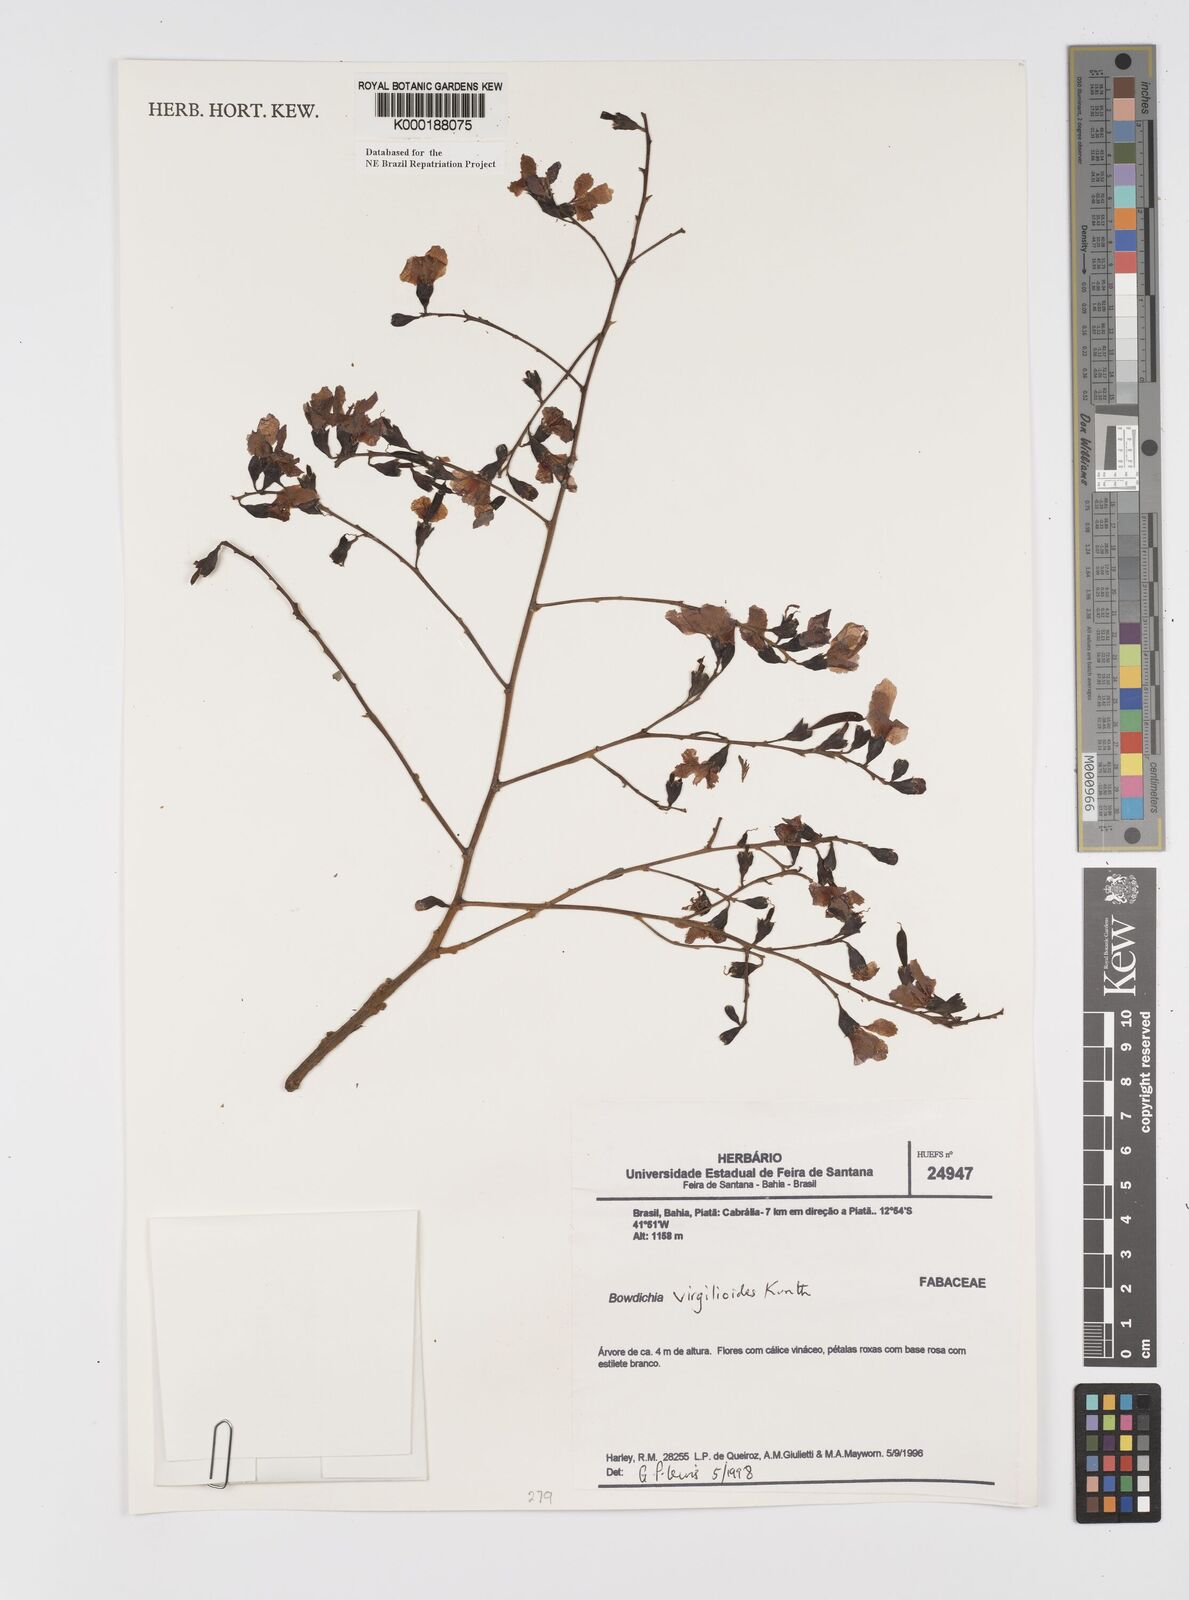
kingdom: Plantae
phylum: Tracheophyta
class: Magnoliopsida
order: Fabales
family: Fabaceae
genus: Bowdichia
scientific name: Bowdichia virgilioides
